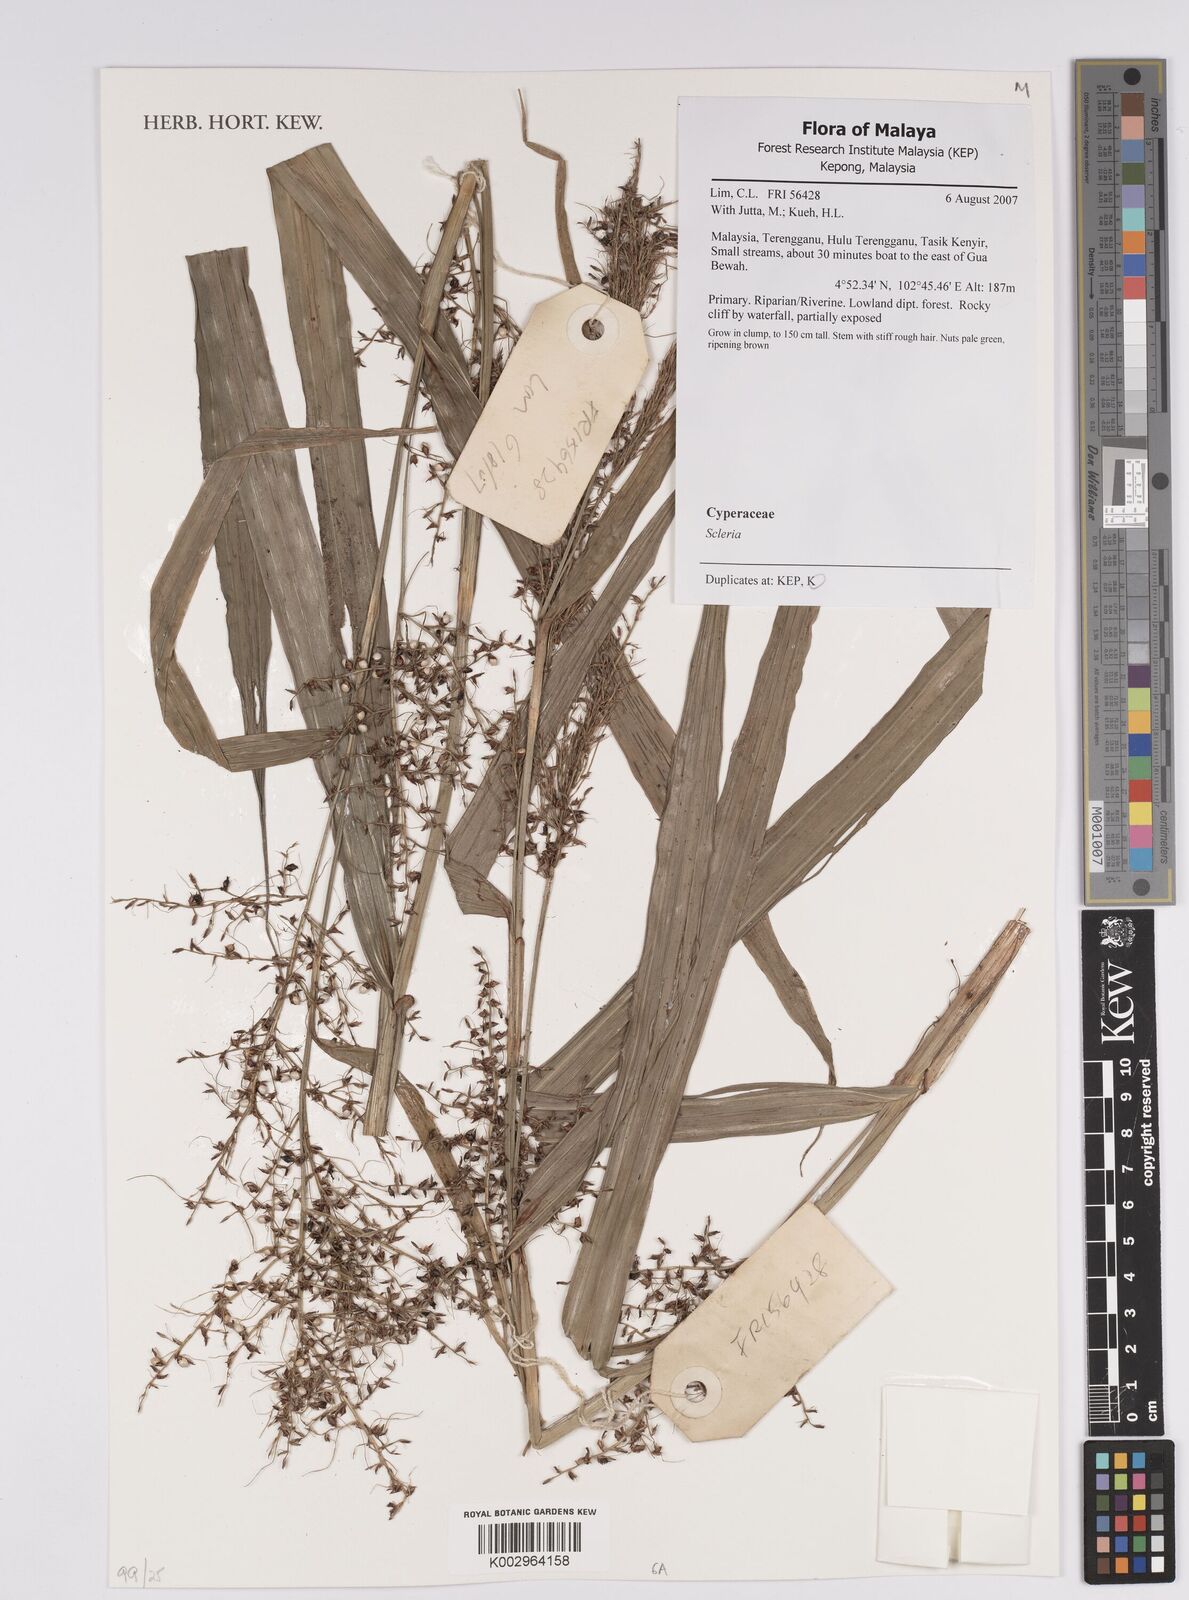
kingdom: Plantae
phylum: Tracheophyta
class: Liliopsida
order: Poales
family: Cyperaceae
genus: Scleria
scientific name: Scleria
